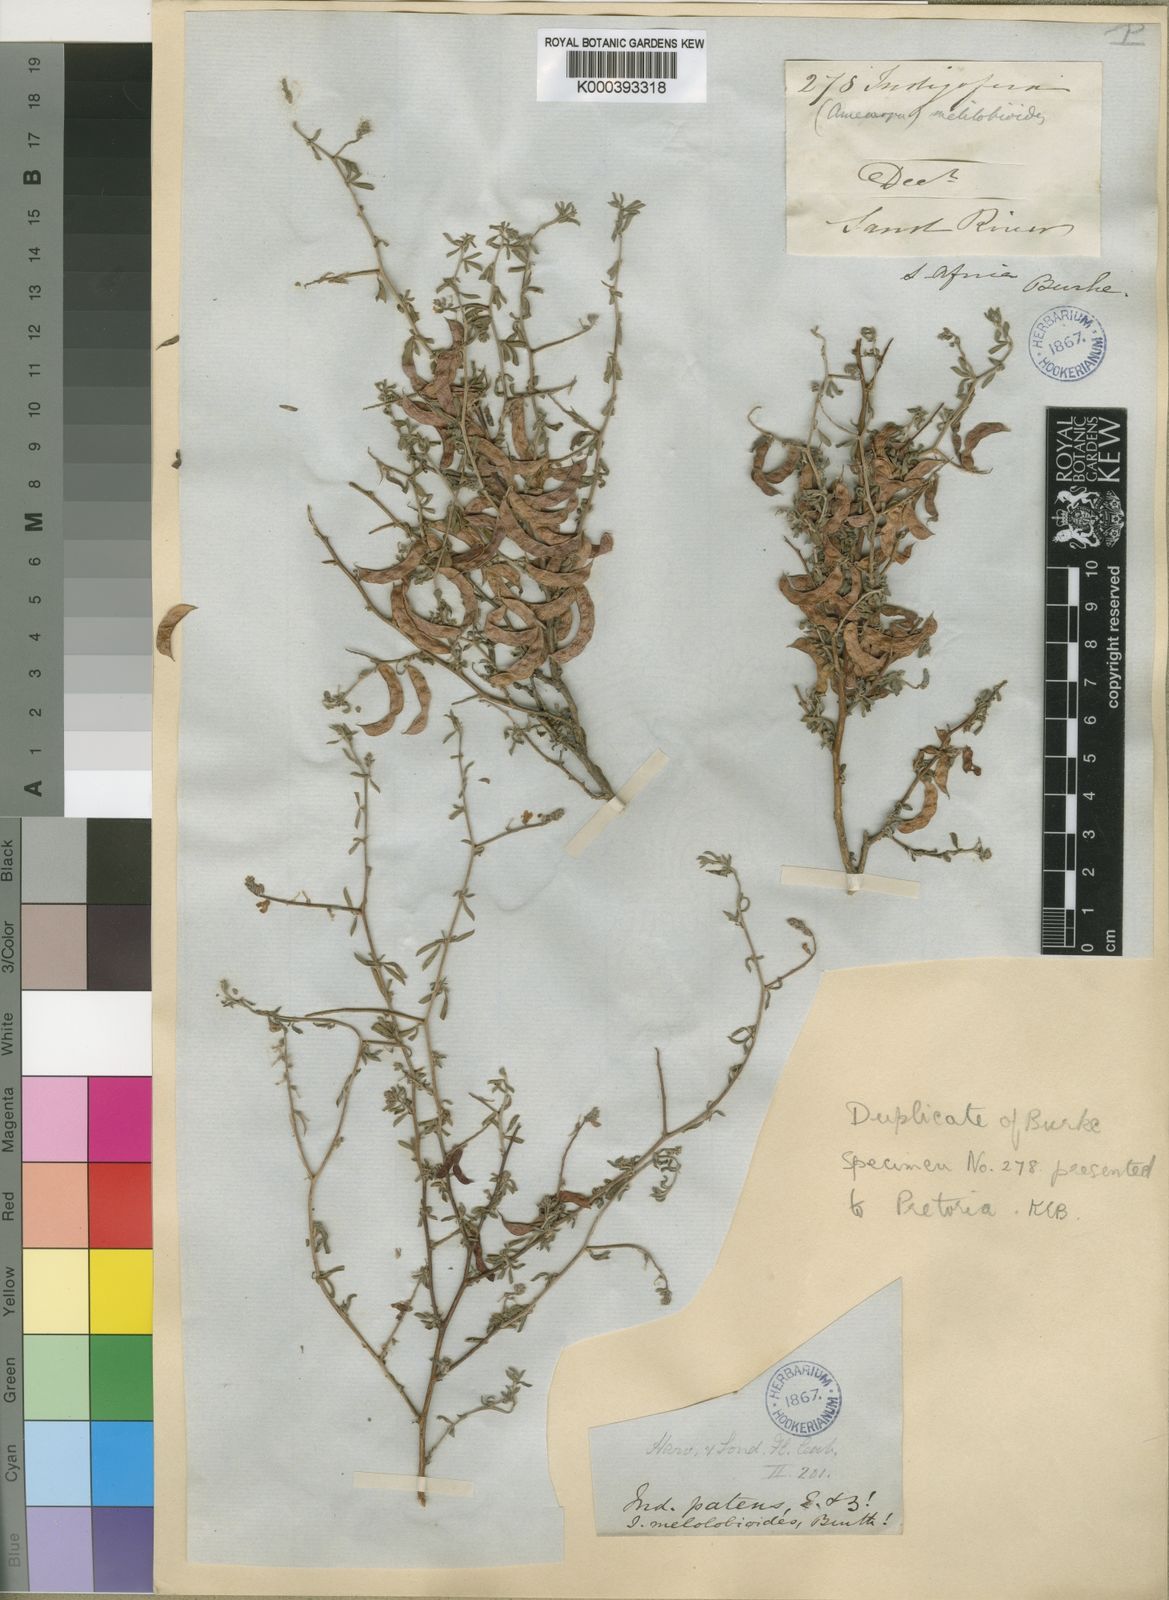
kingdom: Plantae
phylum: Tracheophyta
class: Magnoliopsida
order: Fabales
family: Fabaceae
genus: Indigofera
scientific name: Indigofera sessilifolia
